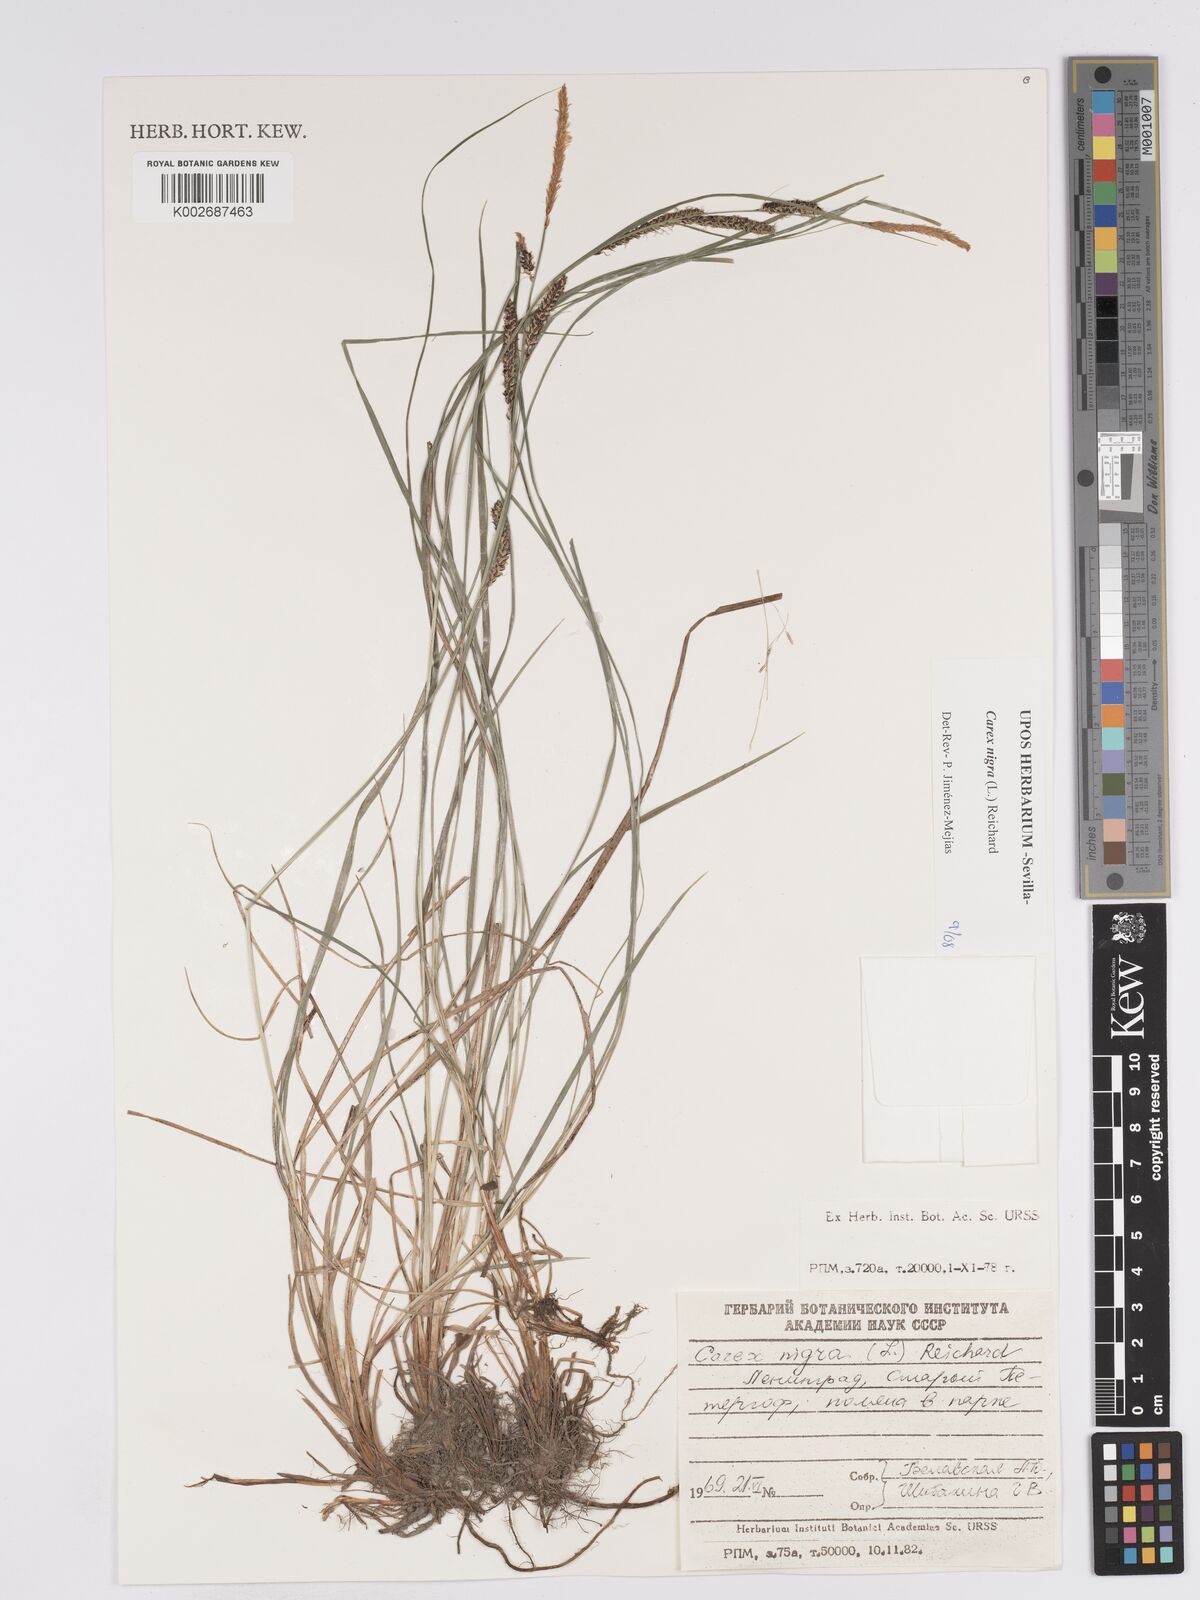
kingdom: Plantae
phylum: Tracheophyta
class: Liliopsida
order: Poales
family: Cyperaceae
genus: Carex
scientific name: Carex nigra
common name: Common sedge
